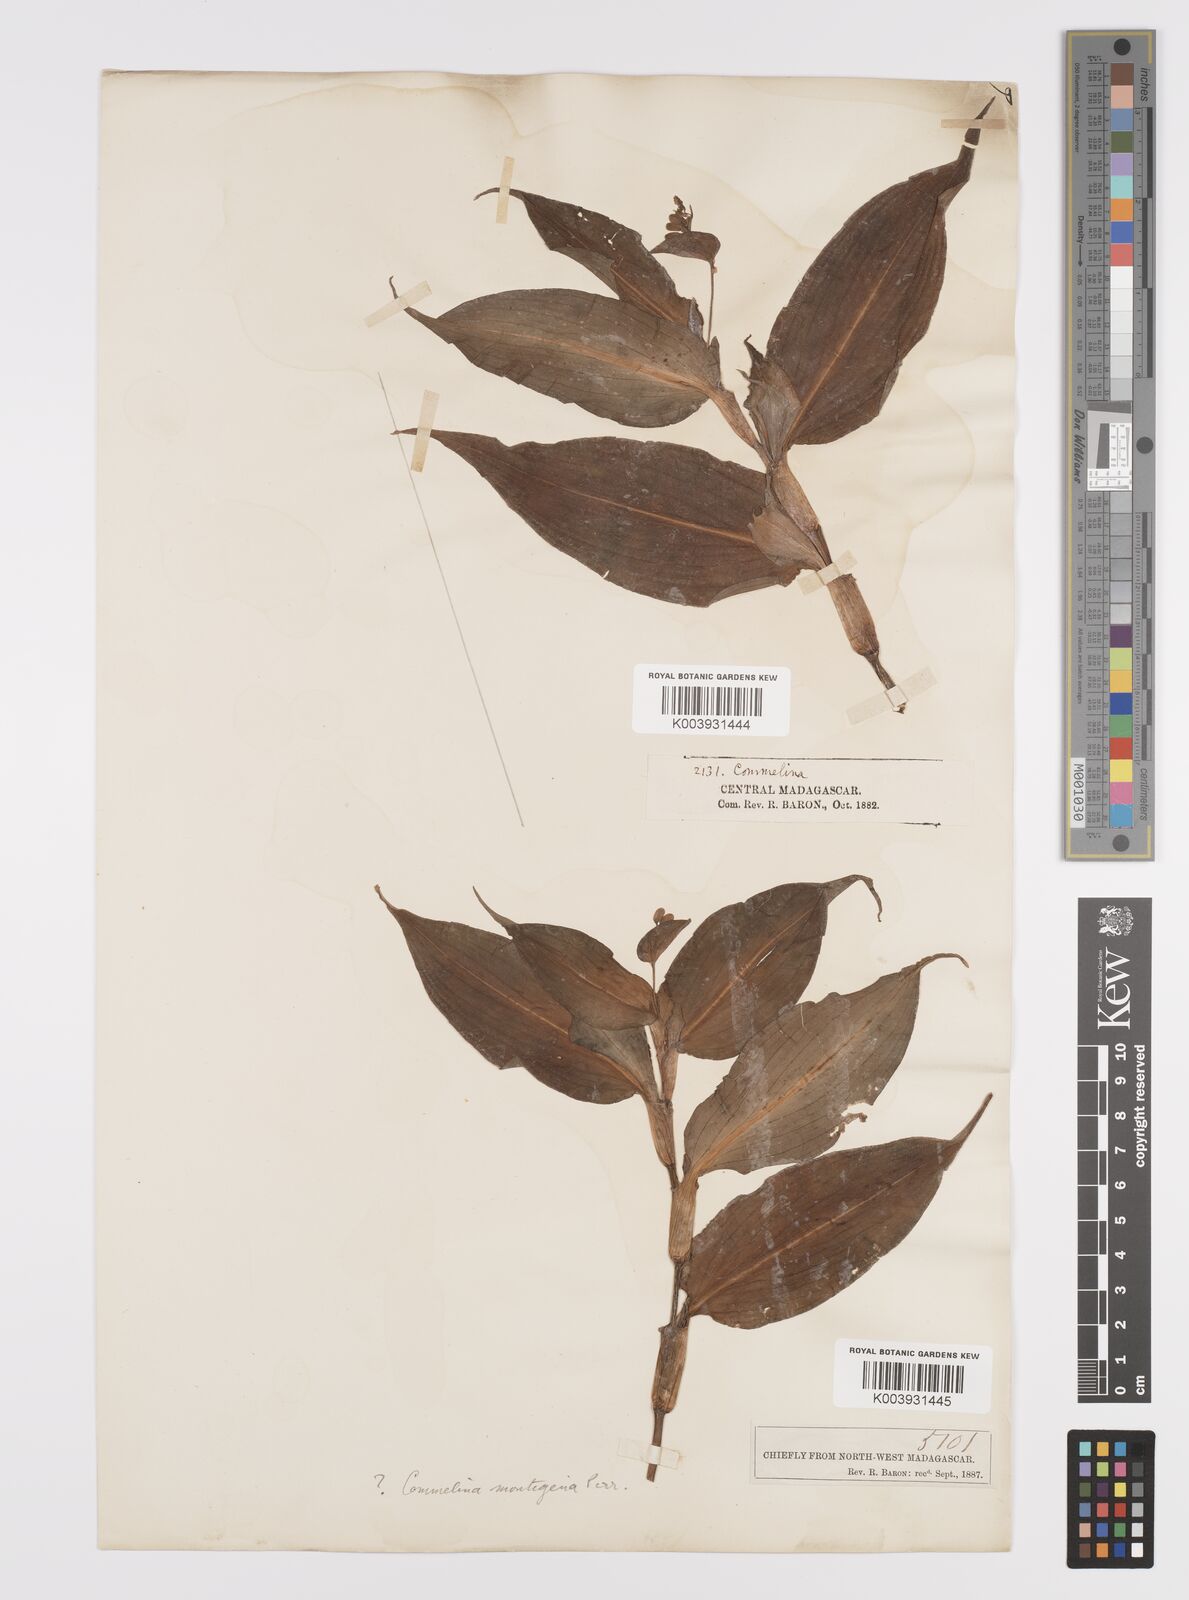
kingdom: Plantae
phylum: Tracheophyta
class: Liliopsida
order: Commelinales
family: Commelinaceae
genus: Commelina
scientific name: Commelina montigena
